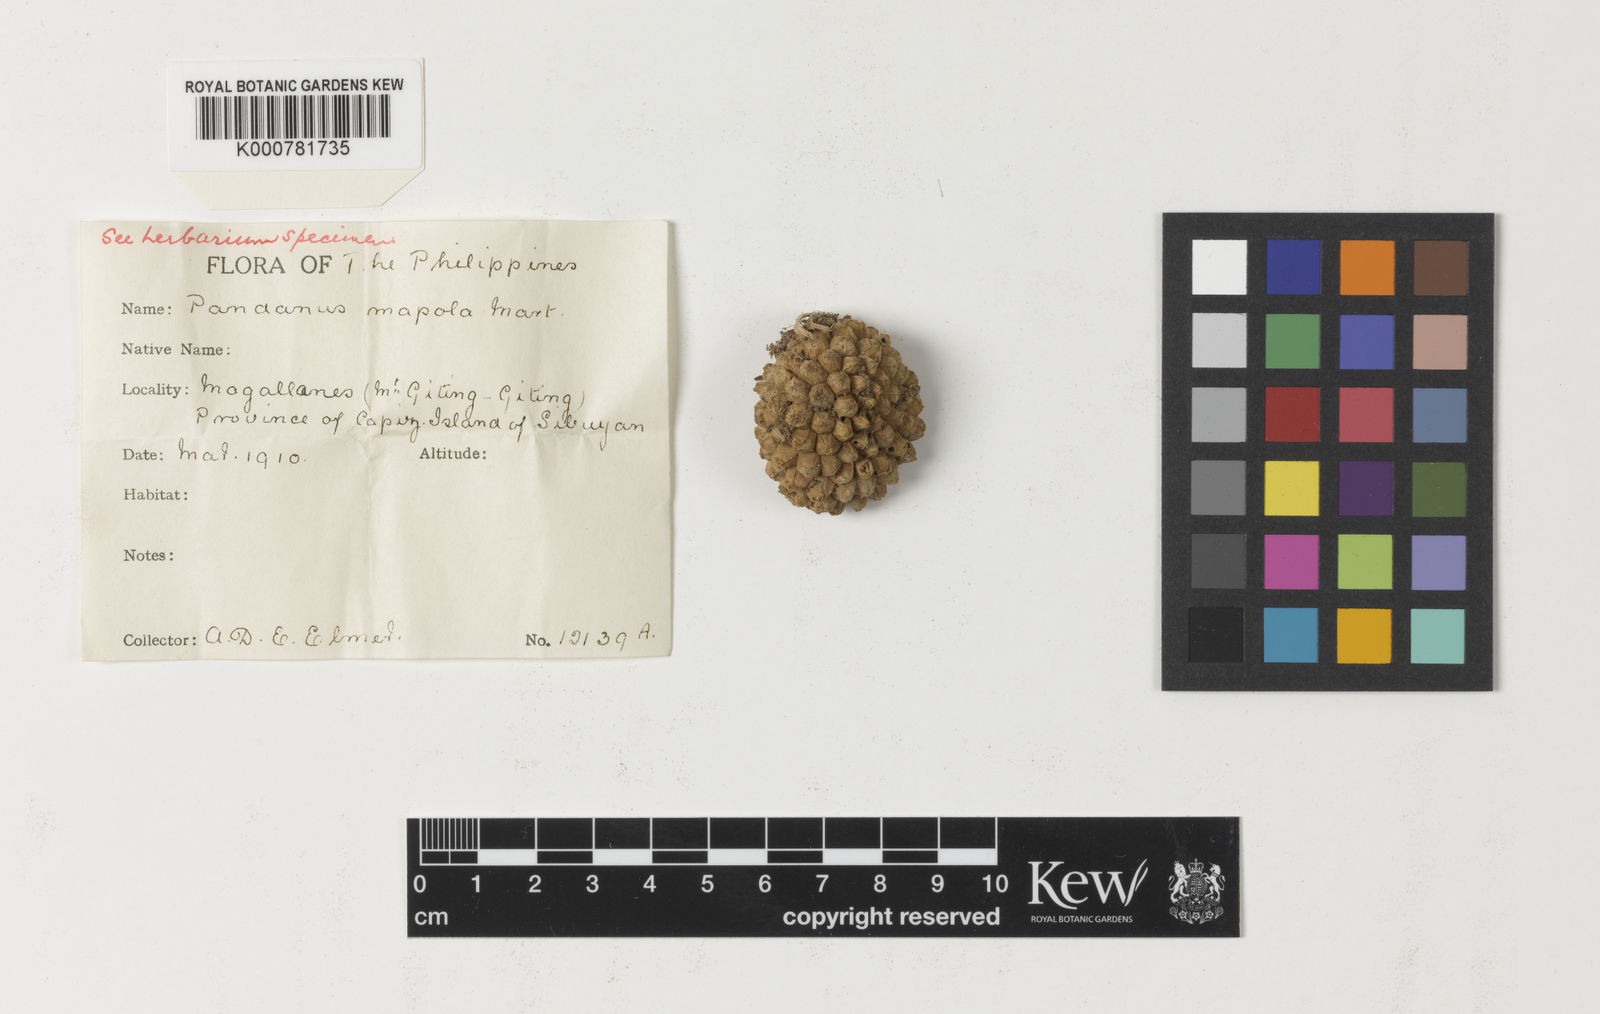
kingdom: Plantae
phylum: Tracheophyta
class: Liliopsida
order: Pandanales
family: Pandanaceae
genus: Pandanus
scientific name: Pandanus mapola
